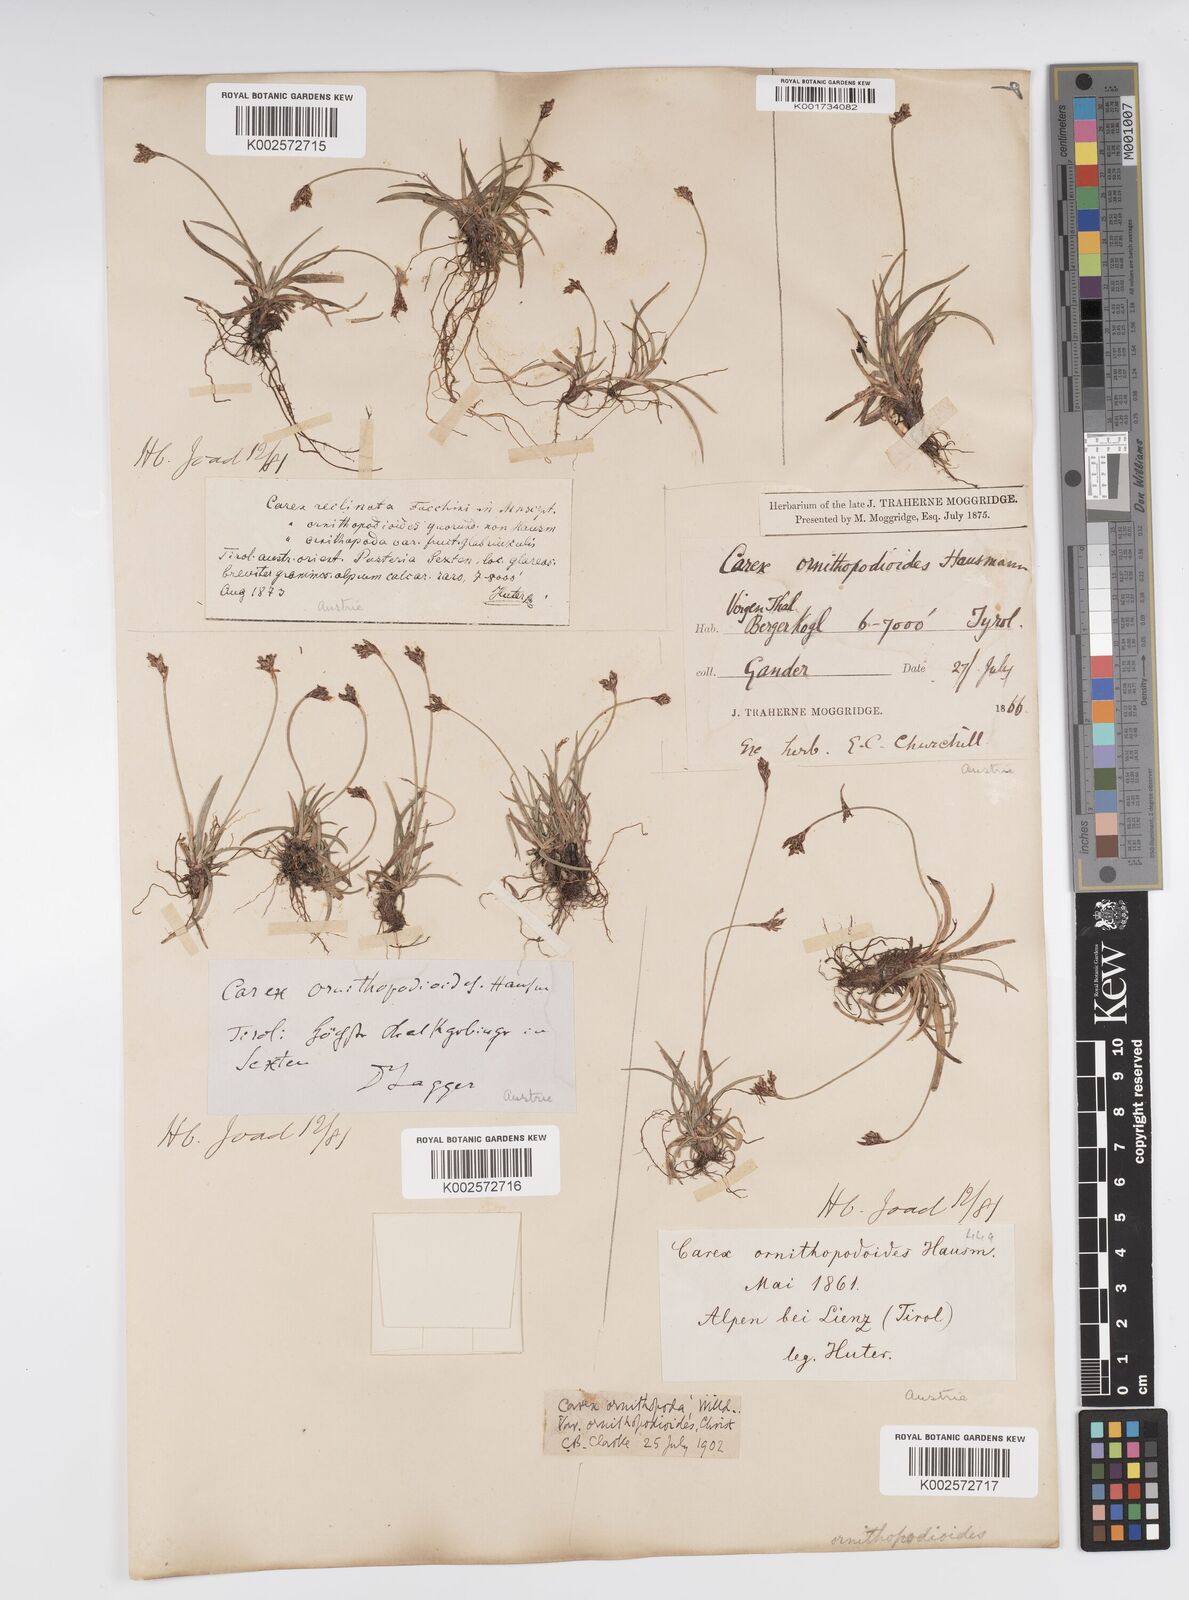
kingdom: Plantae
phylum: Tracheophyta
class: Liliopsida
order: Poales
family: Cyperaceae
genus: Carex
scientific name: Carex ornithopoda
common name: Bird's-foot sedge
